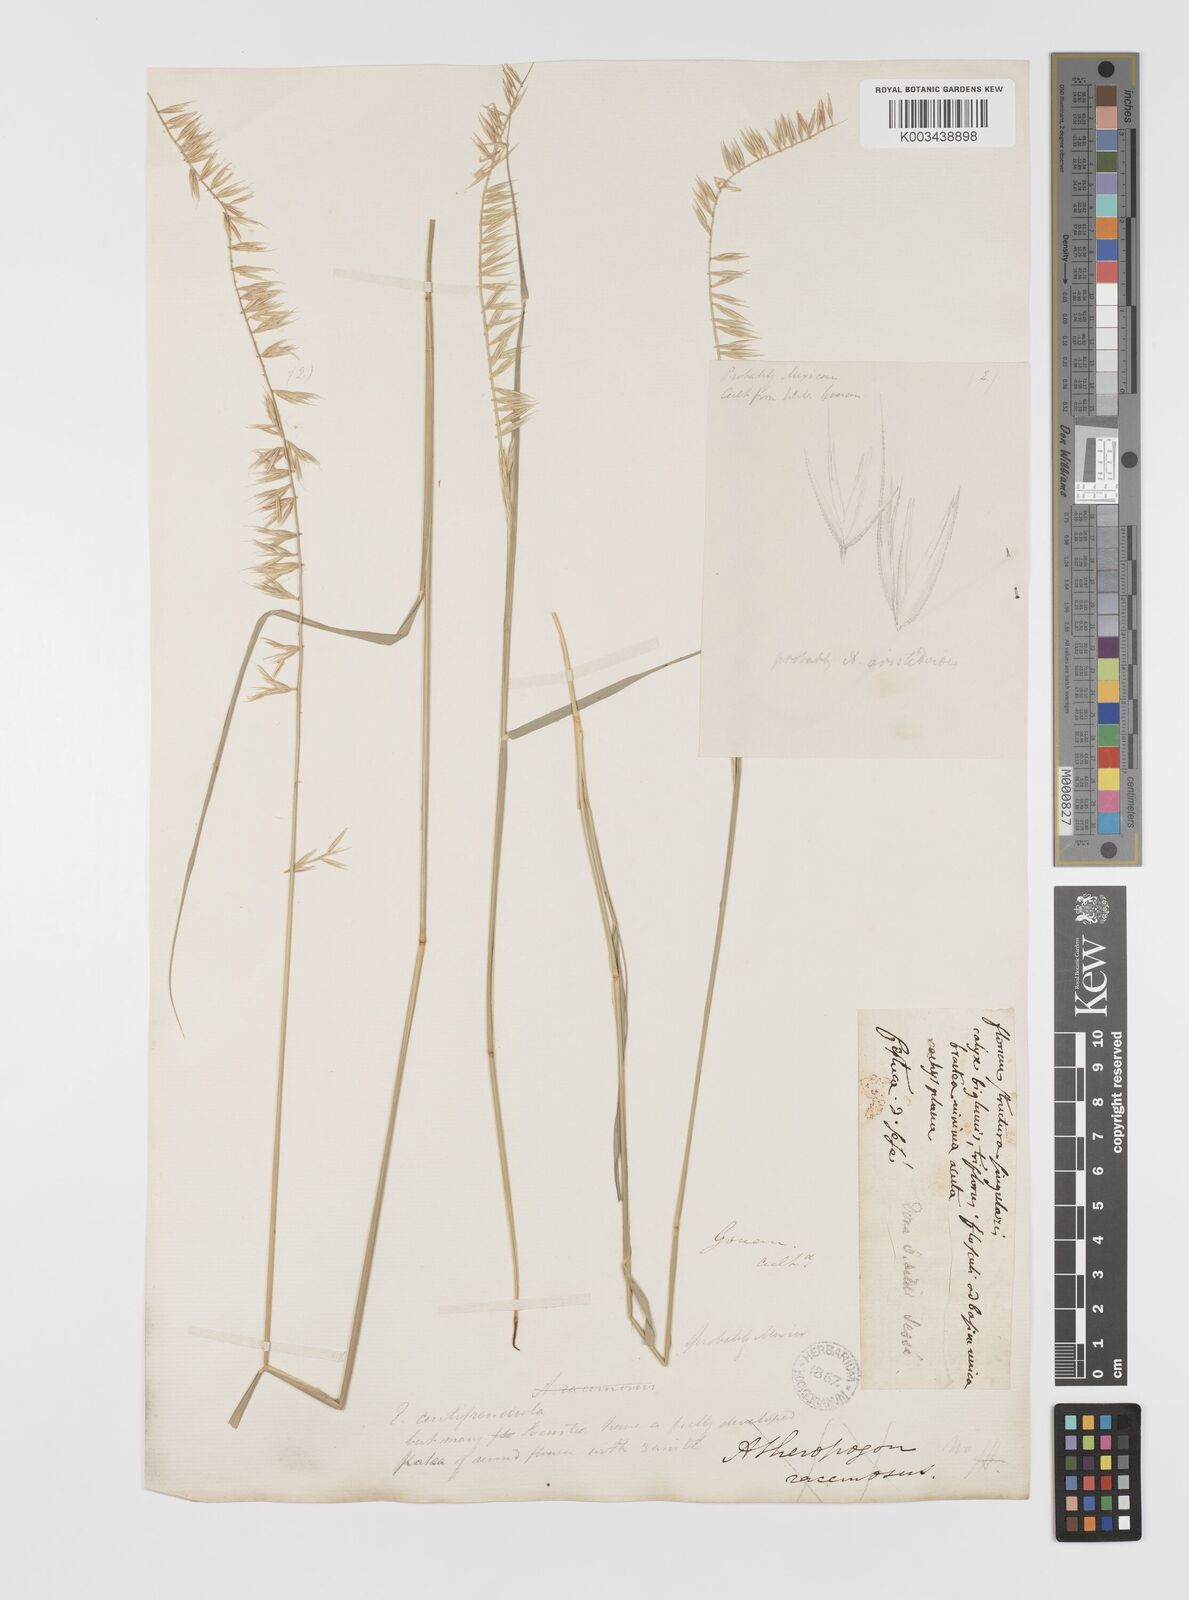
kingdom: Plantae
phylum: Tracheophyta
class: Liliopsida
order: Poales
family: Poaceae
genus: Bouteloua
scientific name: Bouteloua curtipendula
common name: Side-oats grama
